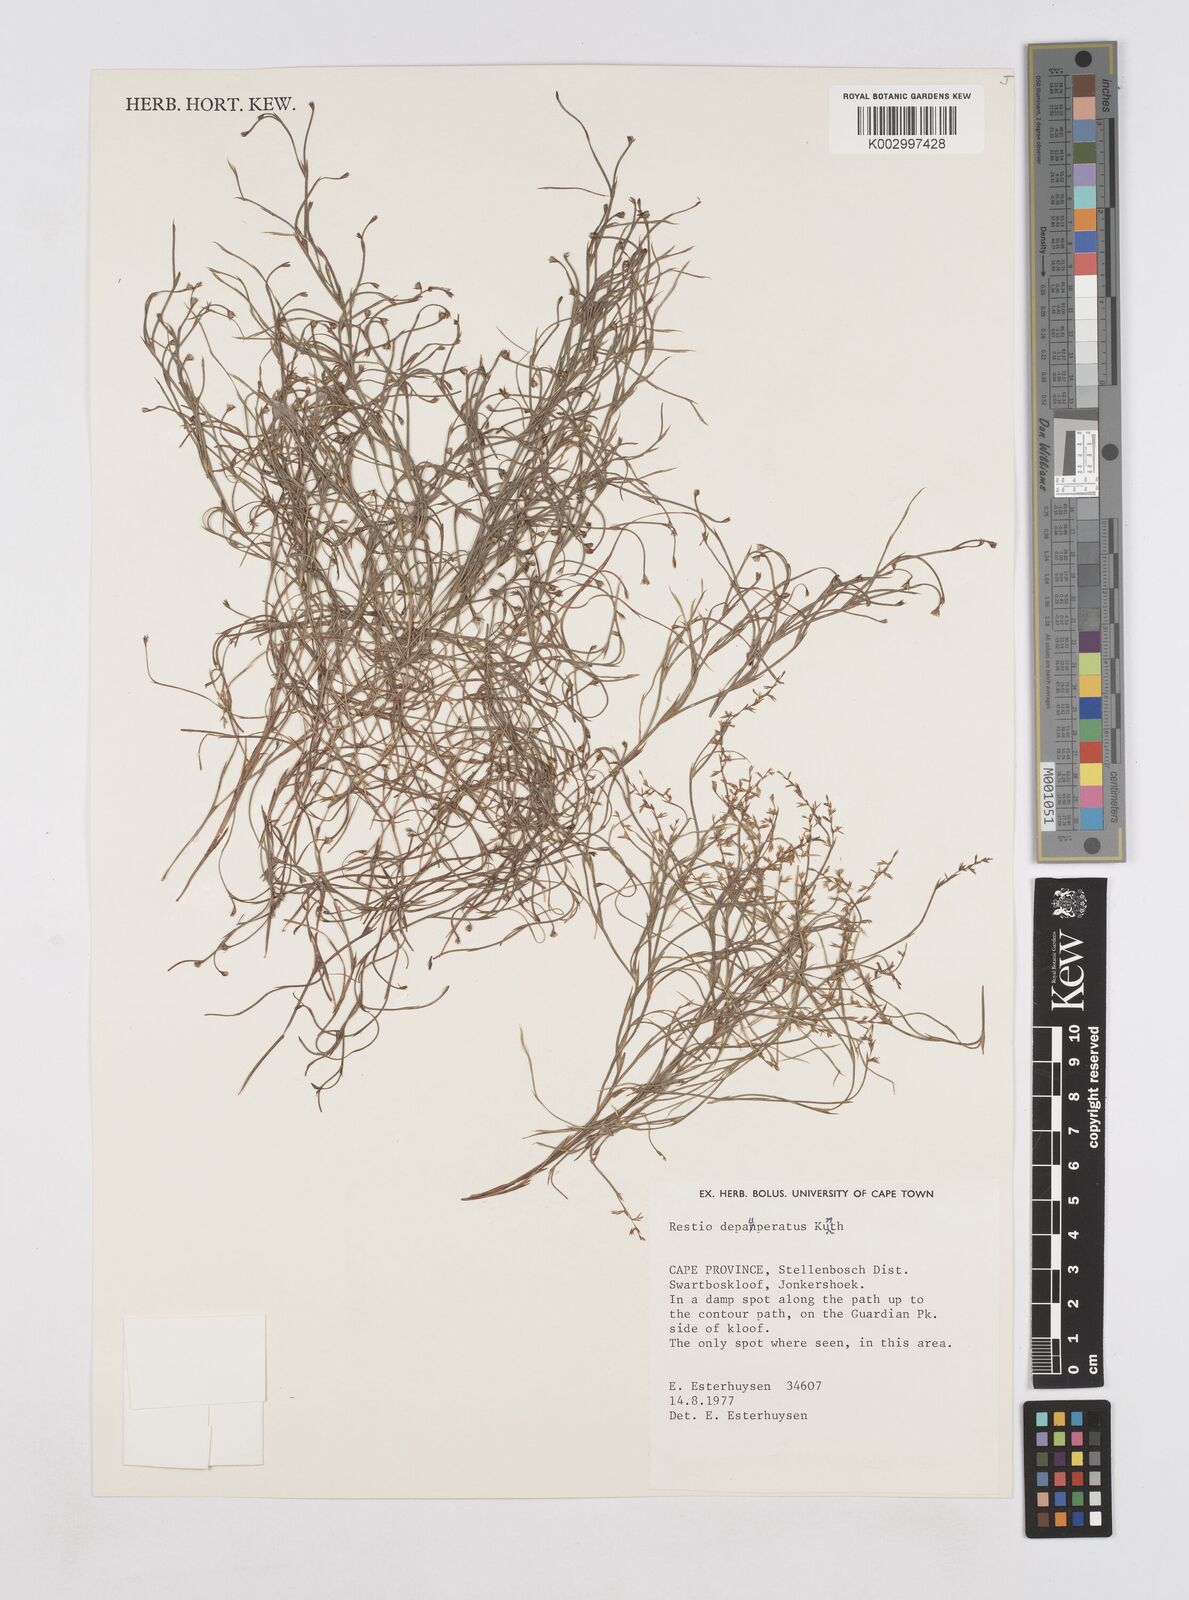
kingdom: Plantae
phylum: Tracheophyta
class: Liliopsida
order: Poales
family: Restionaceae
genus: Platycaulos
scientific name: Platycaulos depauperatus
